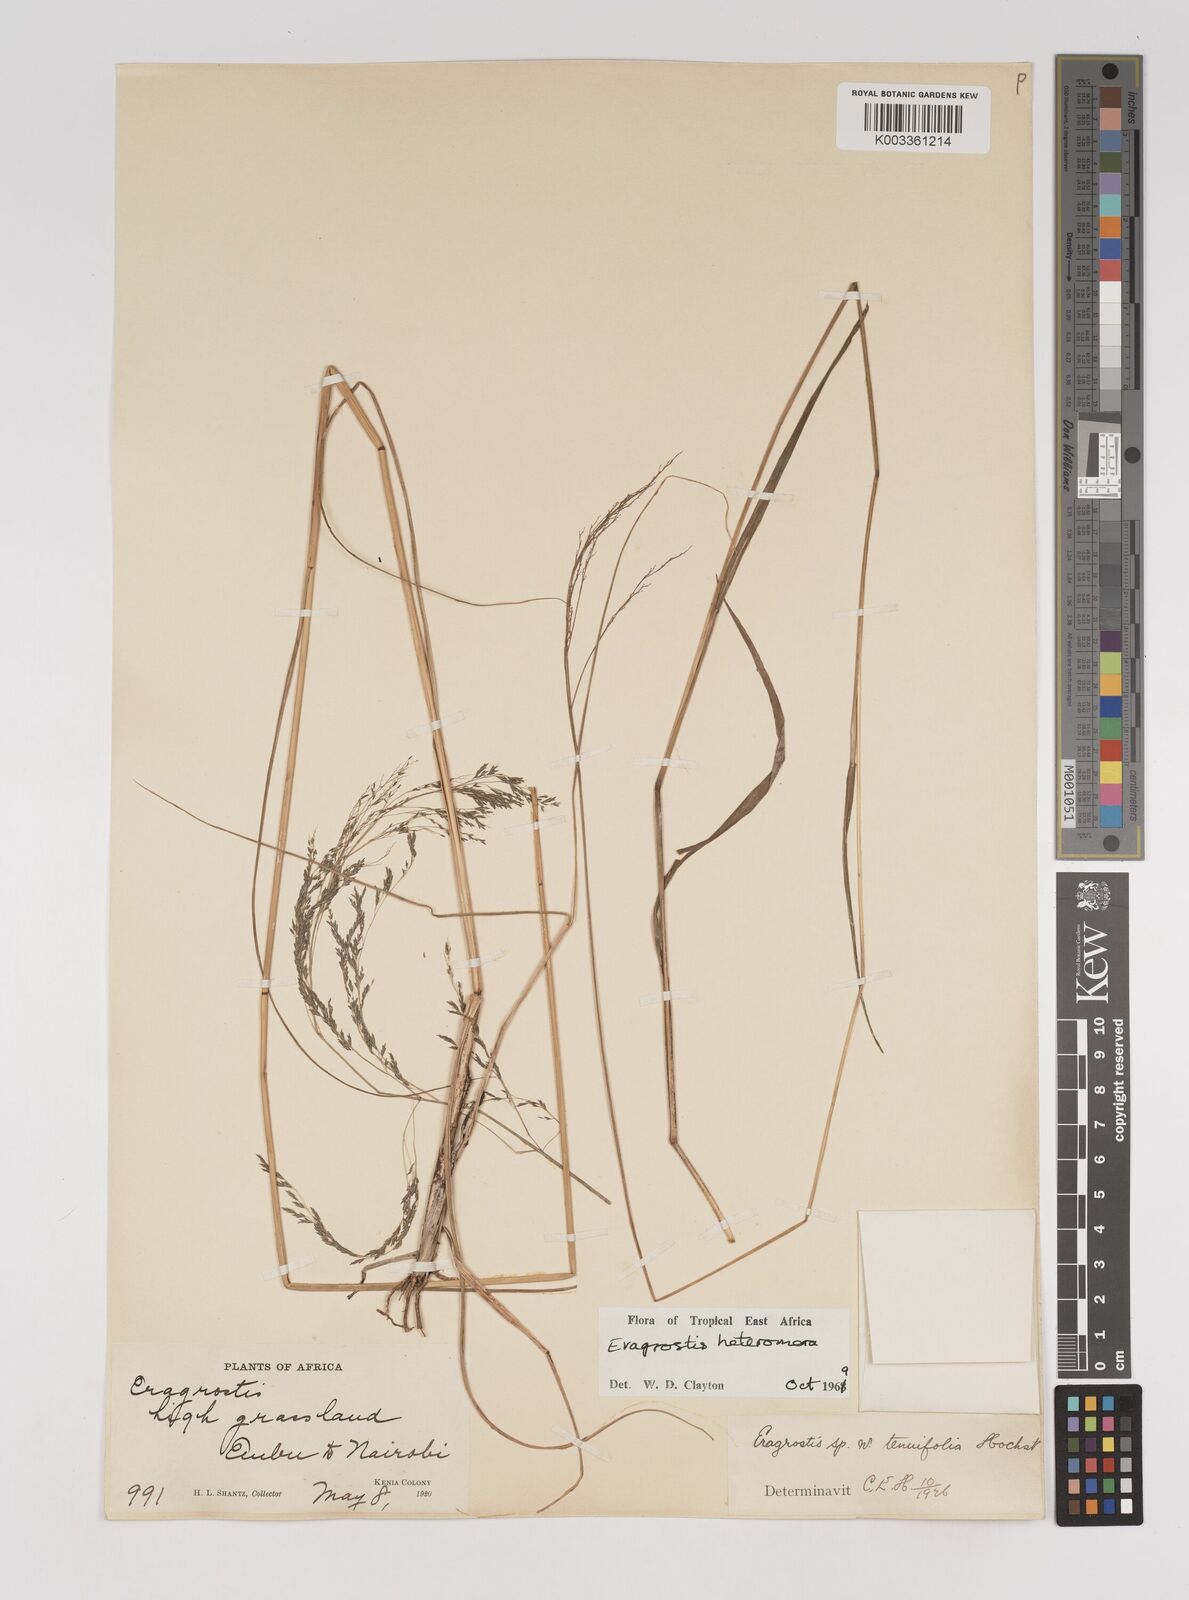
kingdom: Plantae
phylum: Tracheophyta
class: Liliopsida
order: Poales
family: Poaceae
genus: Eragrostis
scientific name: Eragrostis heteromera
